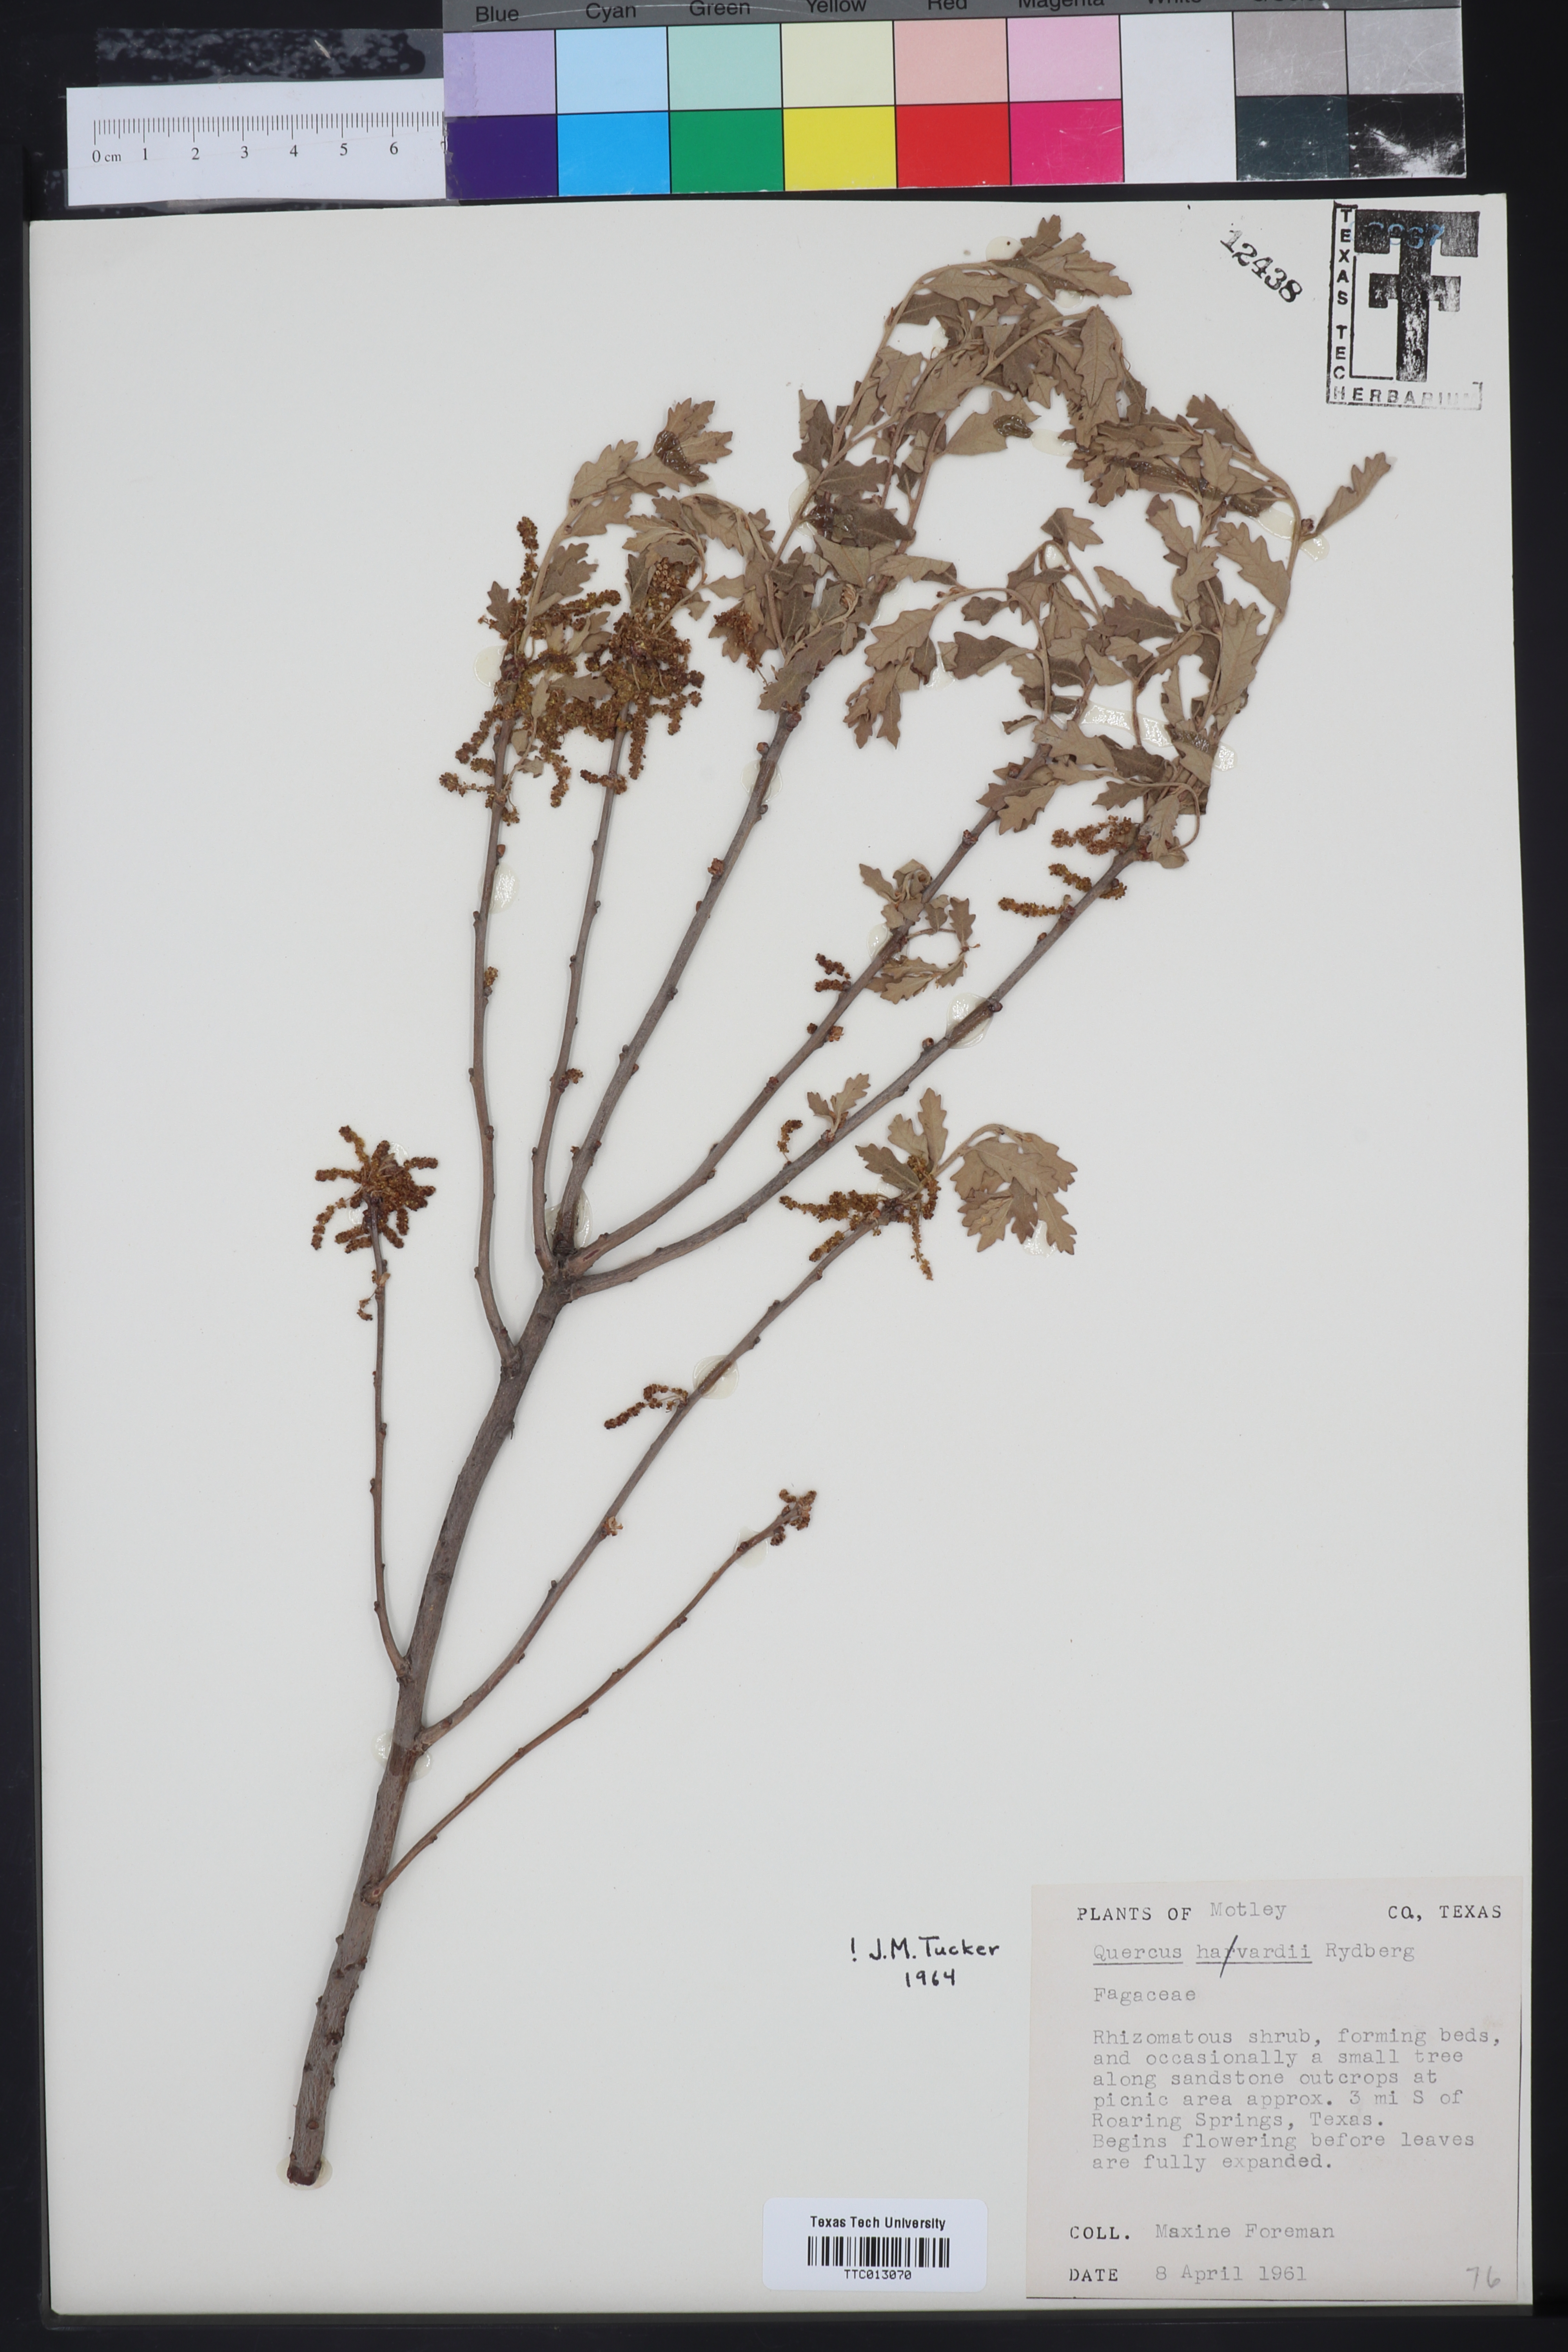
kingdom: Plantae
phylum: Tracheophyta
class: Magnoliopsida
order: Fagales
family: Fagaceae
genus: Quercus
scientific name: Quercus havardii
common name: Shinnery oak
